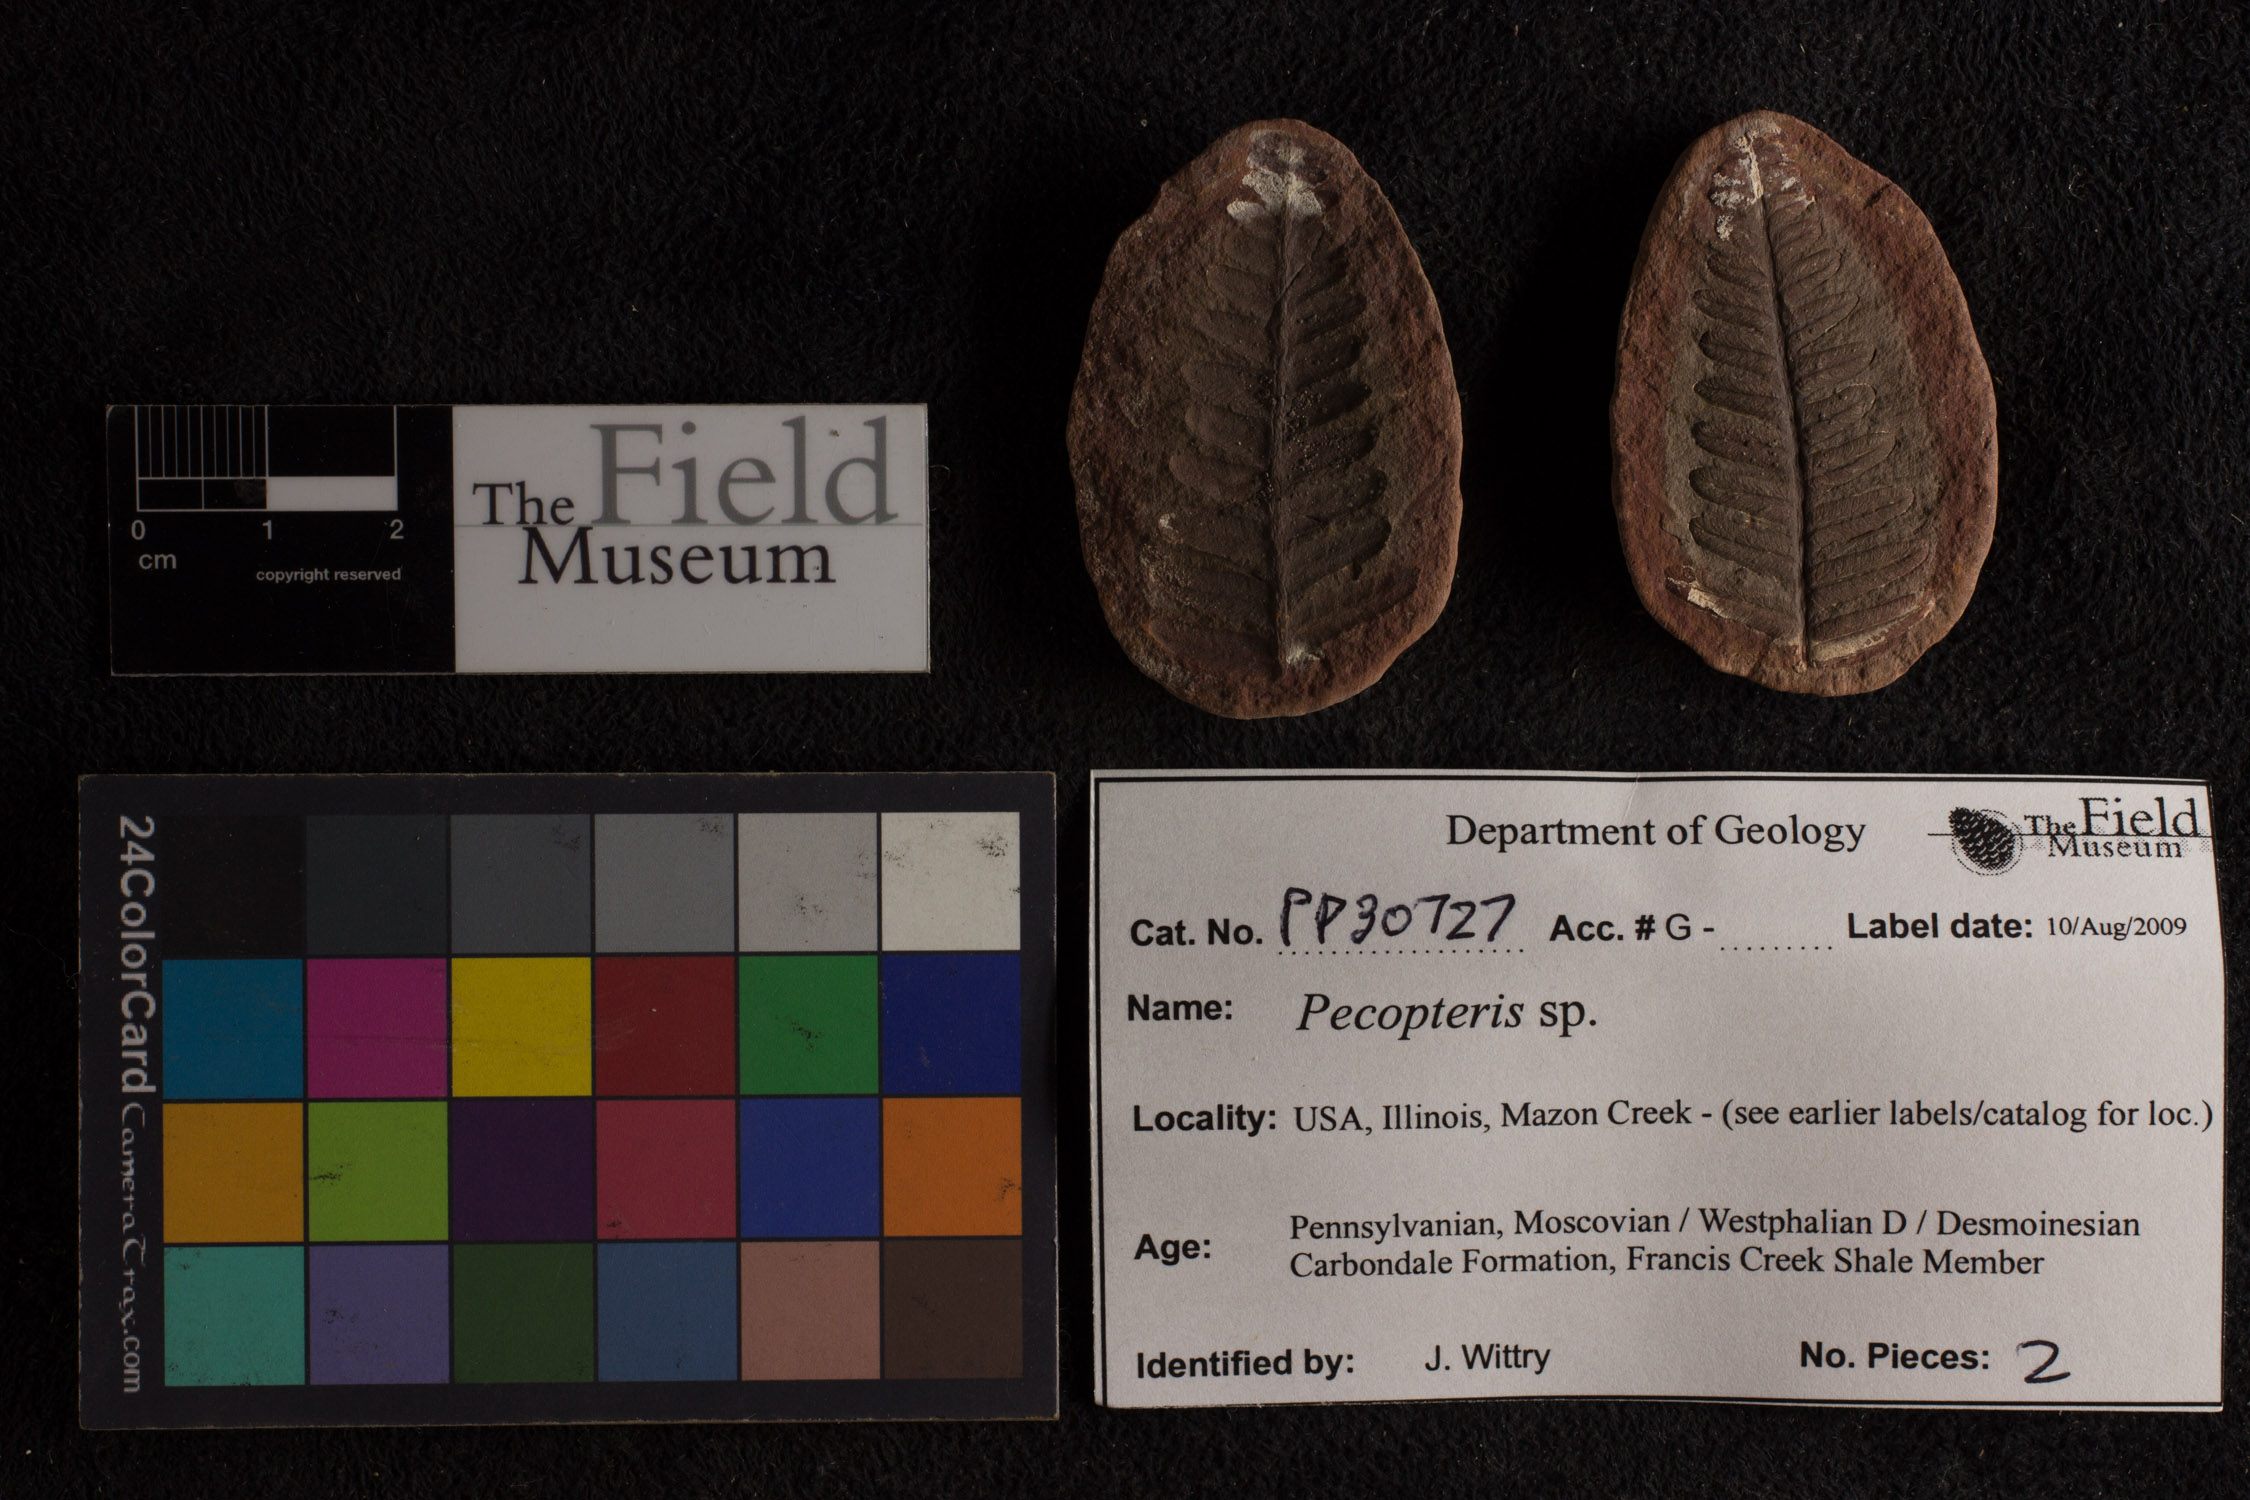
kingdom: Plantae
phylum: Tracheophyta
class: Polypodiopsida
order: Marattiales
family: Asterothecaceae
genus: Pecopteris
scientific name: Pecopteris
